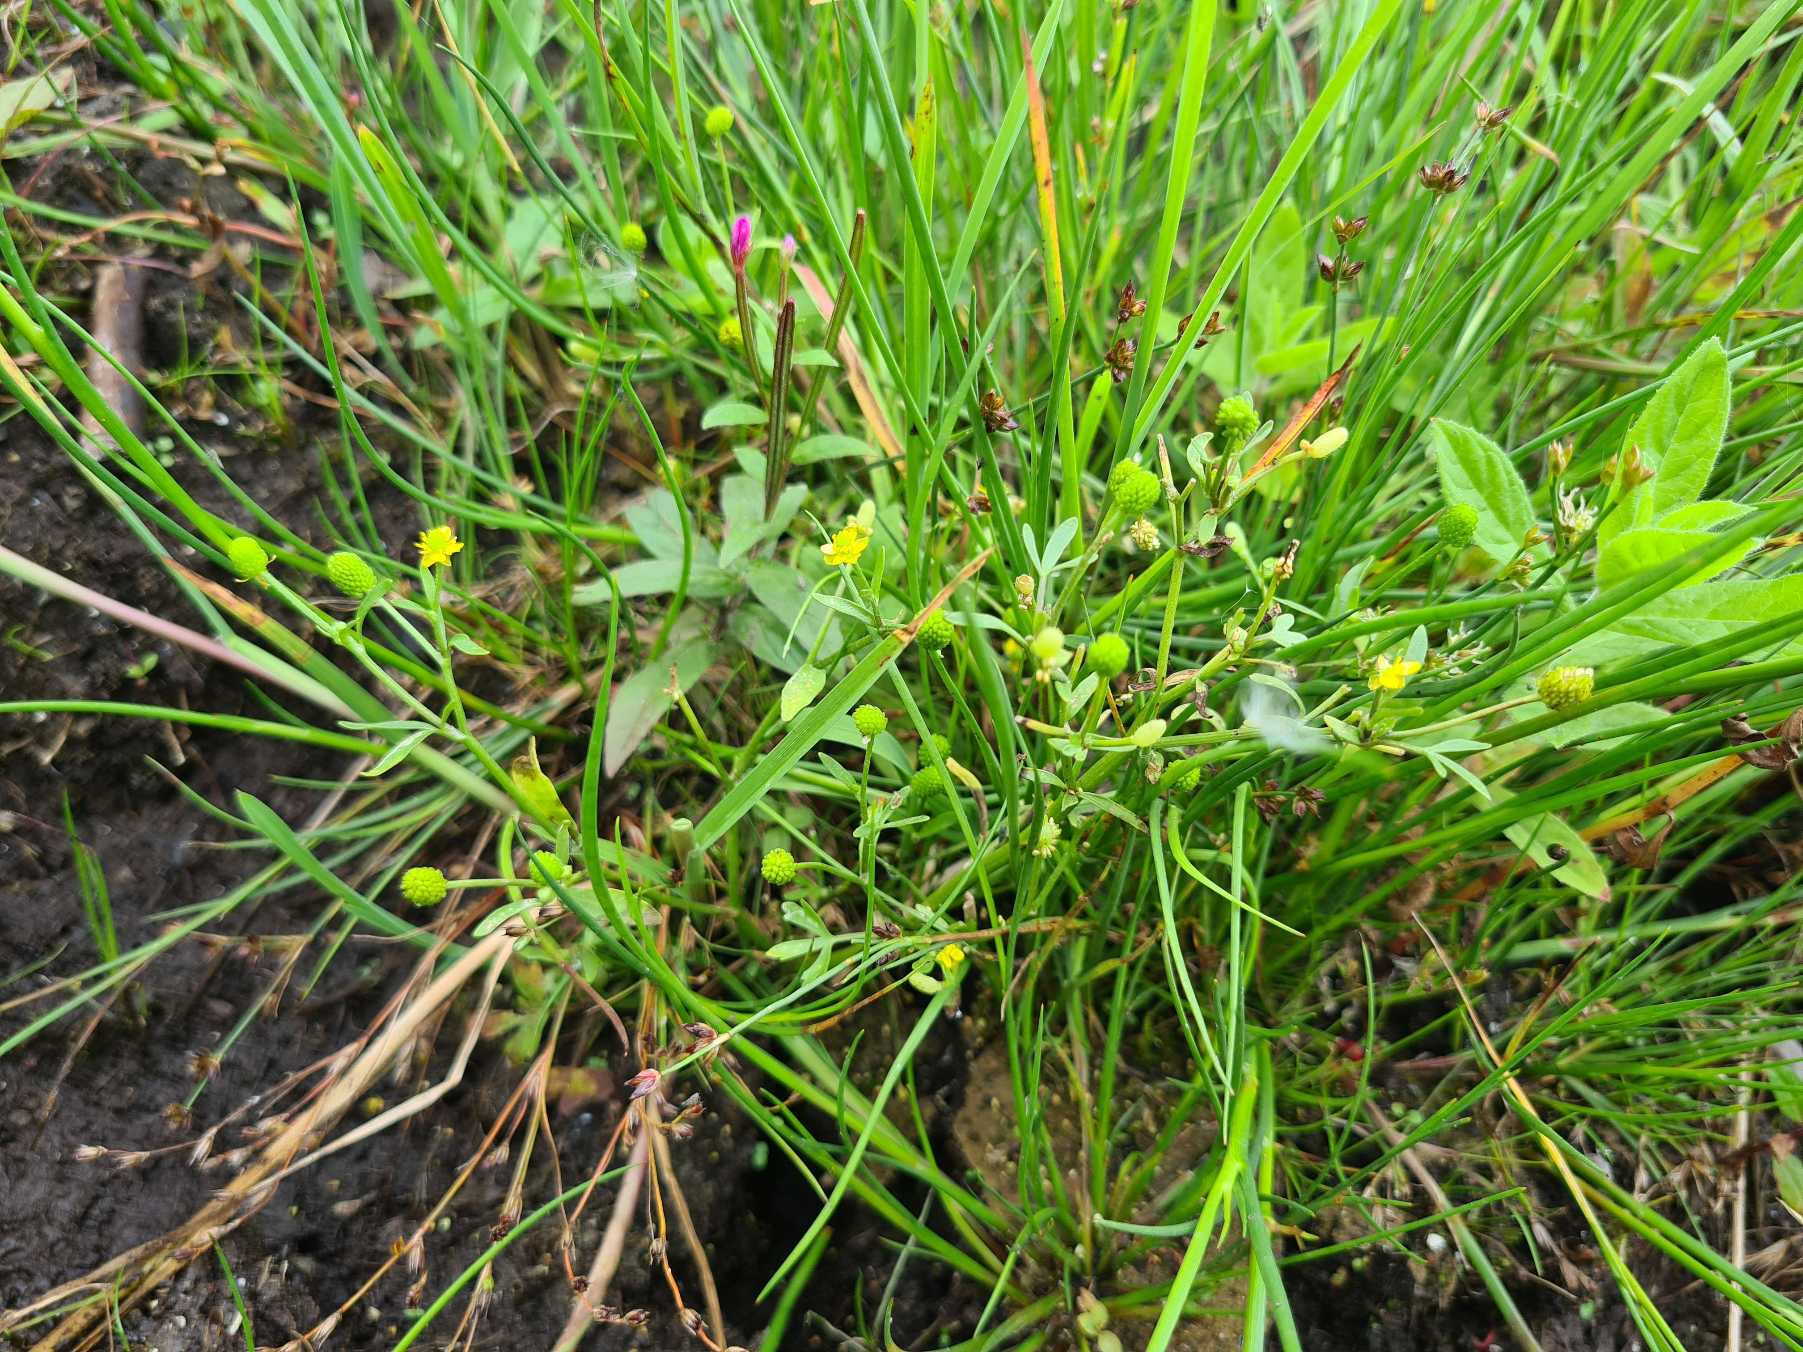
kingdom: Plantae
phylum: Tracheophyta
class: Magnoliopsida
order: Ranunculales
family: Ranunculaceae
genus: Ranunculus
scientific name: Ranunculus sceleratus
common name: Tigger-ranunkel
